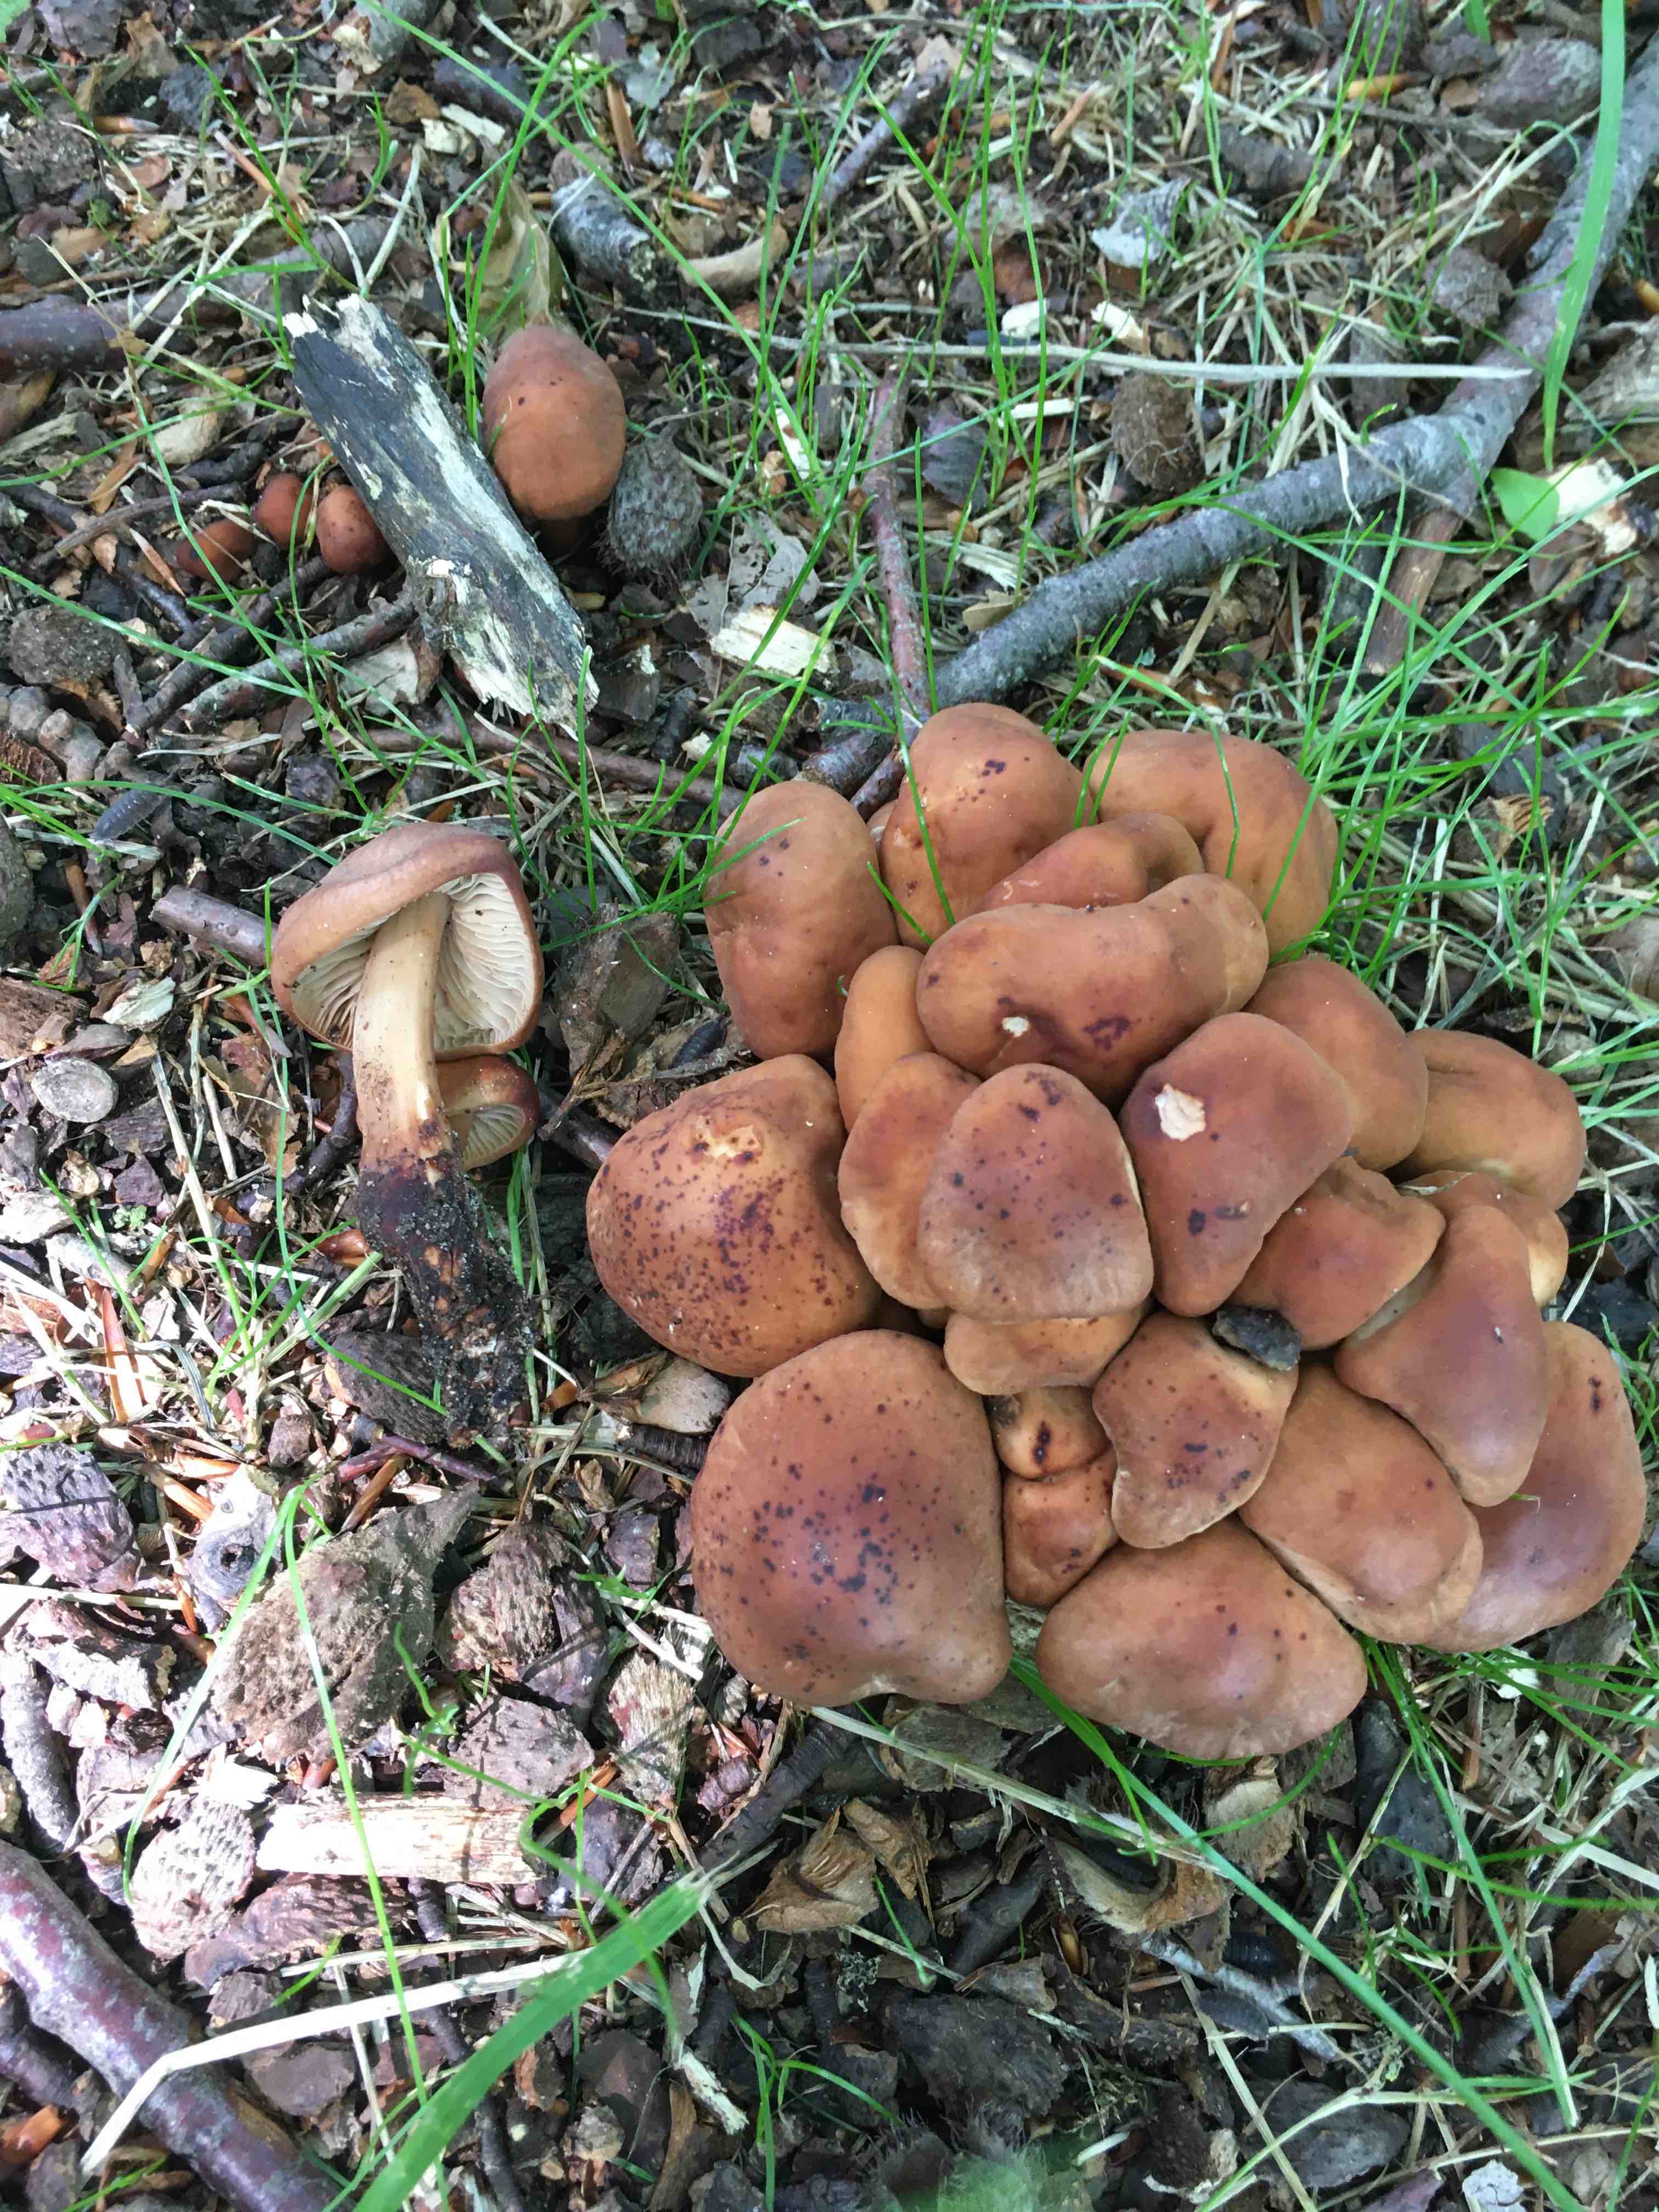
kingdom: Fungi
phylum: Basidiomycota
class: Agaricomycetes
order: Agaricales
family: Omphalotaceae
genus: Gymnopus
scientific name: Gymnopus fusipes
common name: tenstokket fladhat
